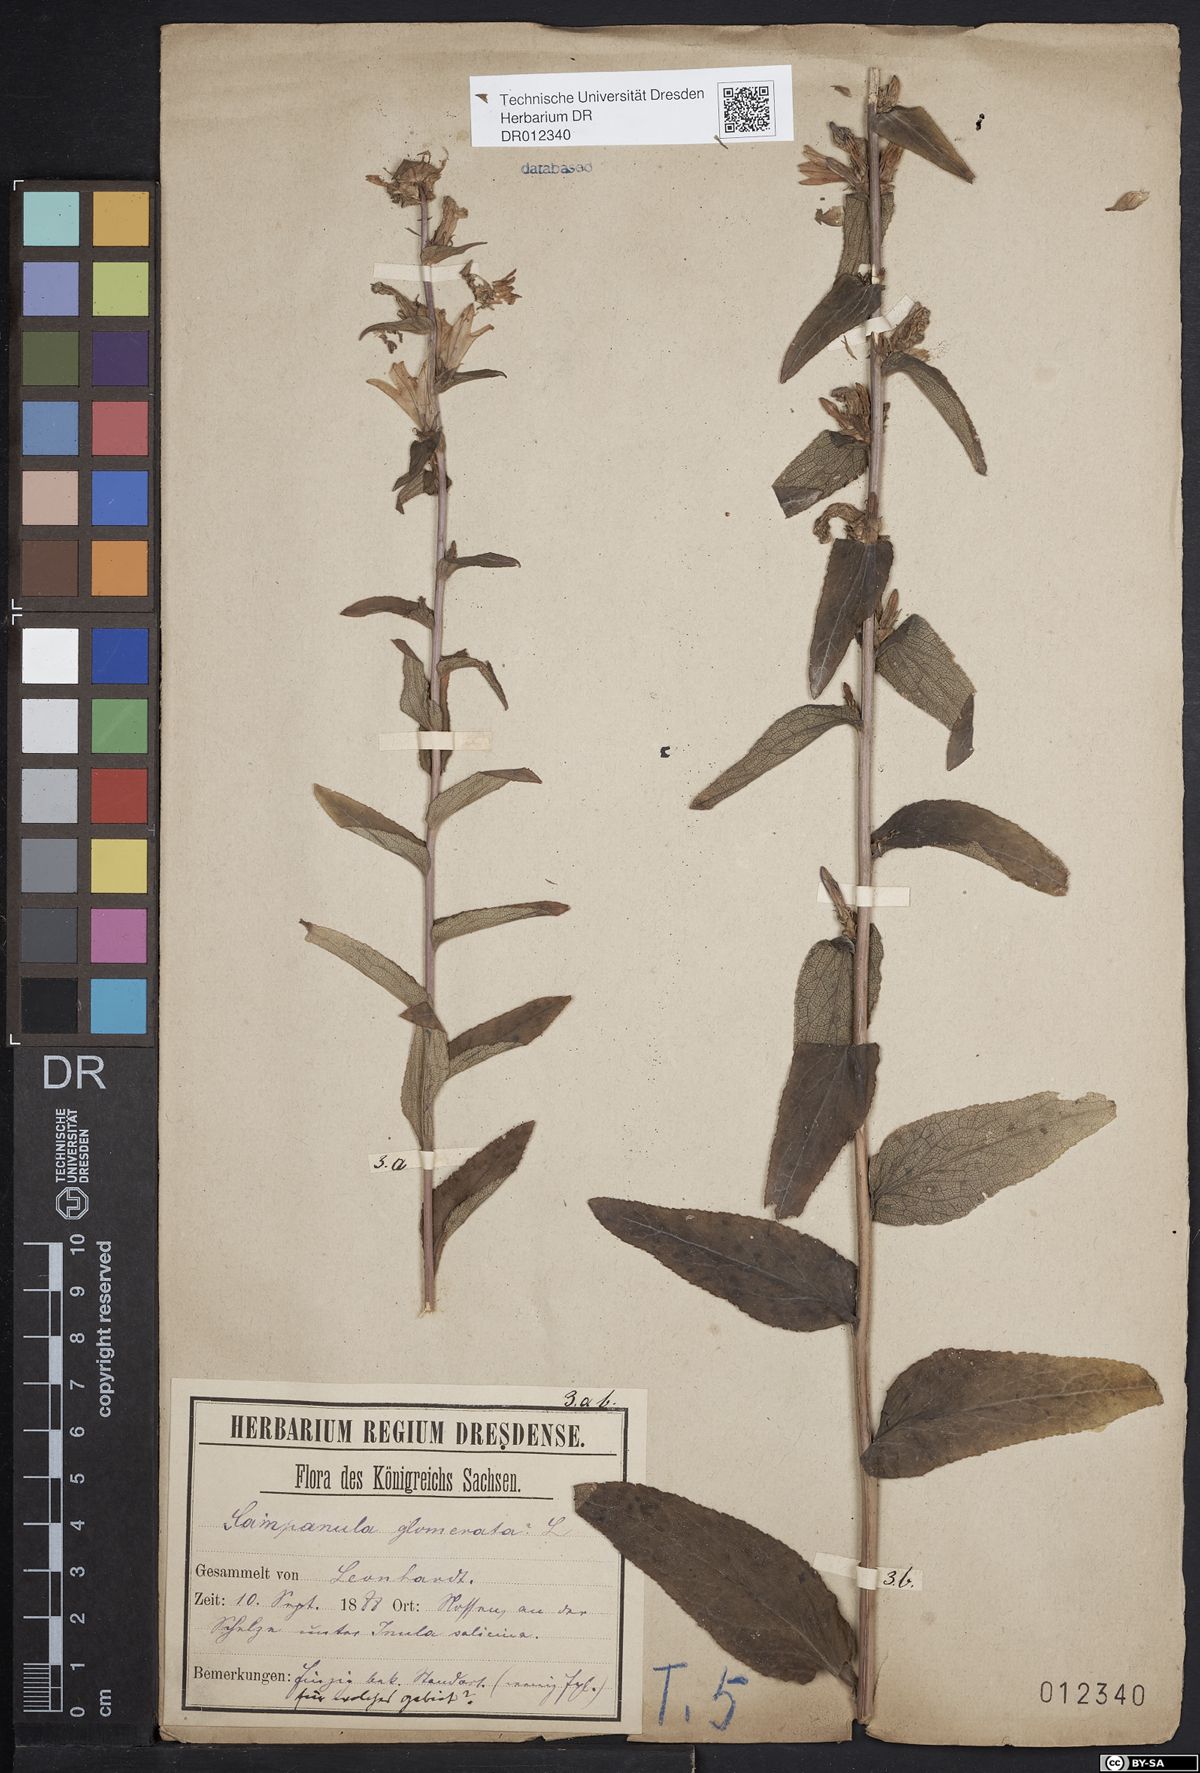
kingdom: Plantae
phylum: Tracheophyta
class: Magnoliopsida
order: Asterales
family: Campanulaceae
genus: Campanula
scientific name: Campanula glomerata
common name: Clustered bellflower
